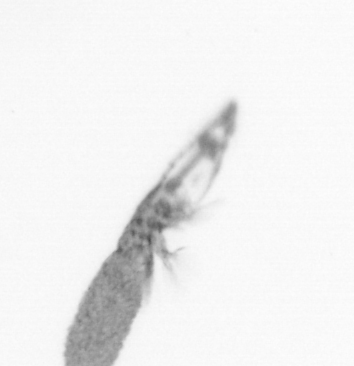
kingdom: Animalia
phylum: Arthropoda
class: Copepoda
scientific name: Copepoda
